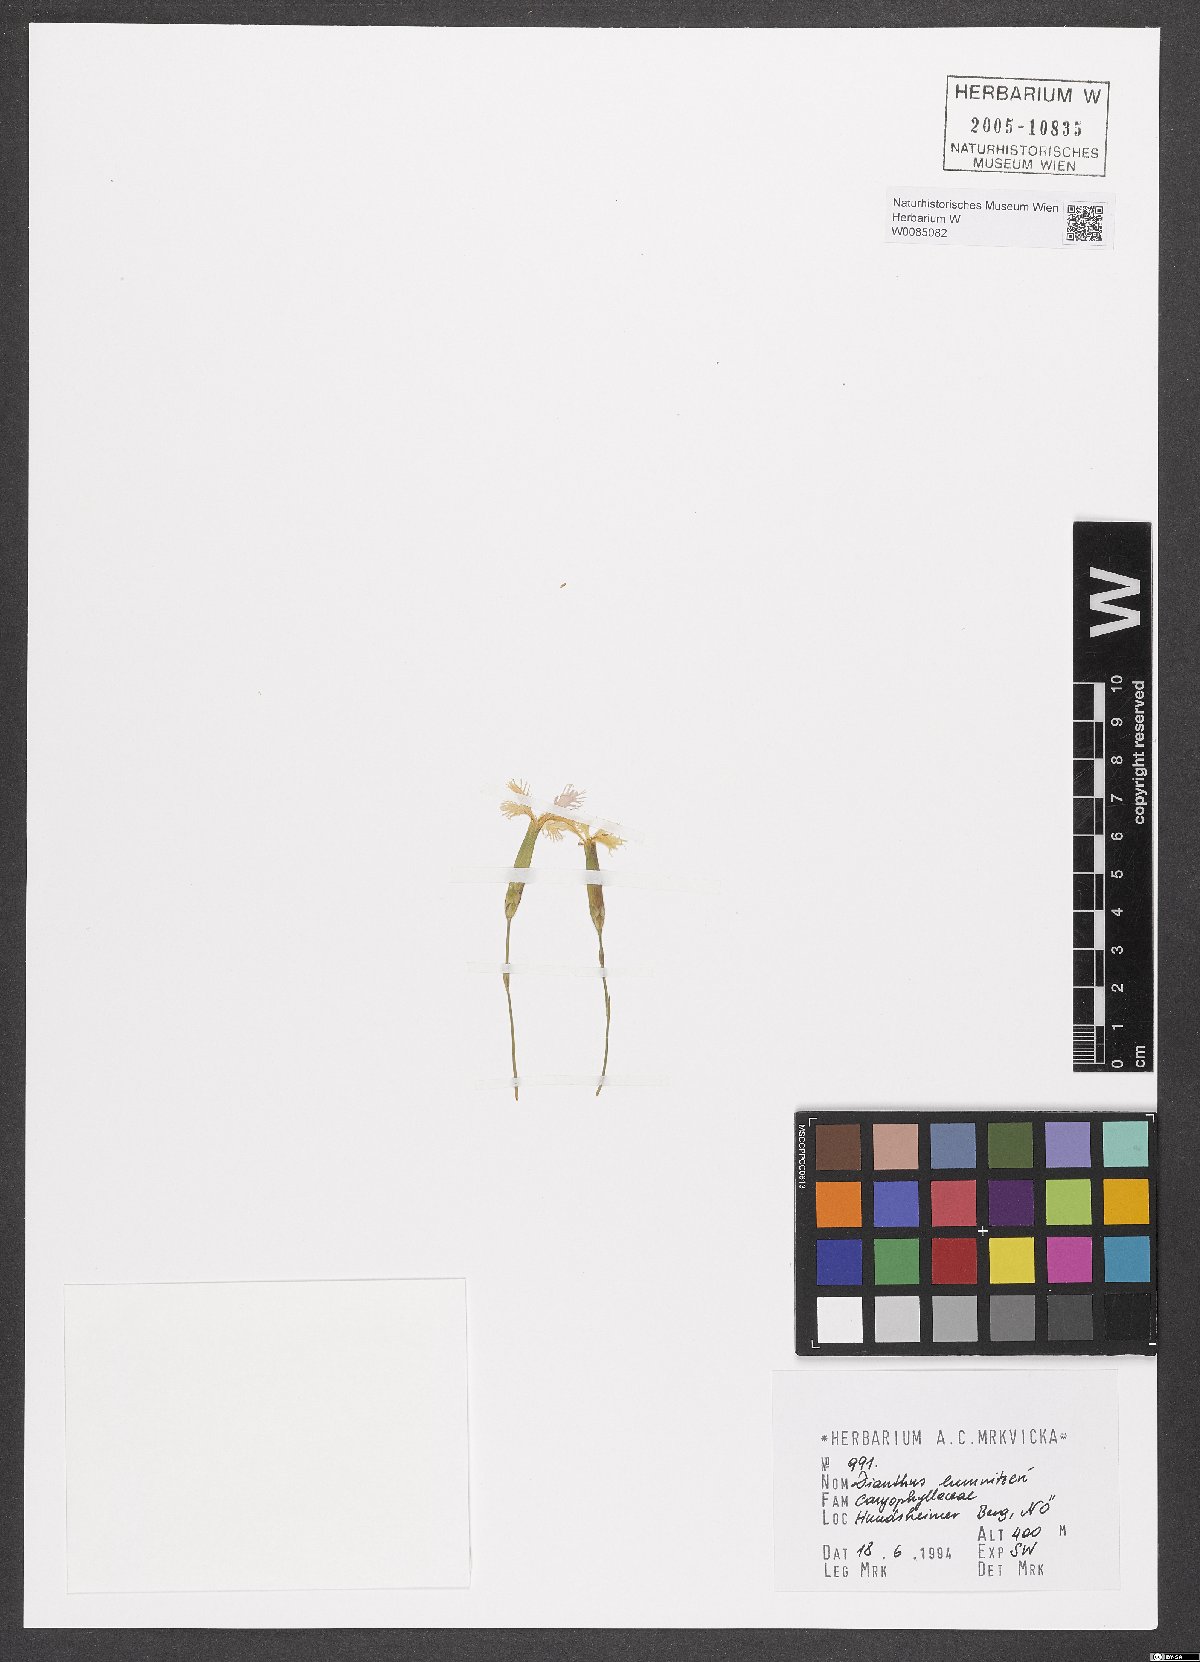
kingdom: Plantae
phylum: Tracheophyta
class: Magnoliopsida
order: Caryophyllales
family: Caryophyllaceae
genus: Dianthus
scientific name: Dianthus praecox
